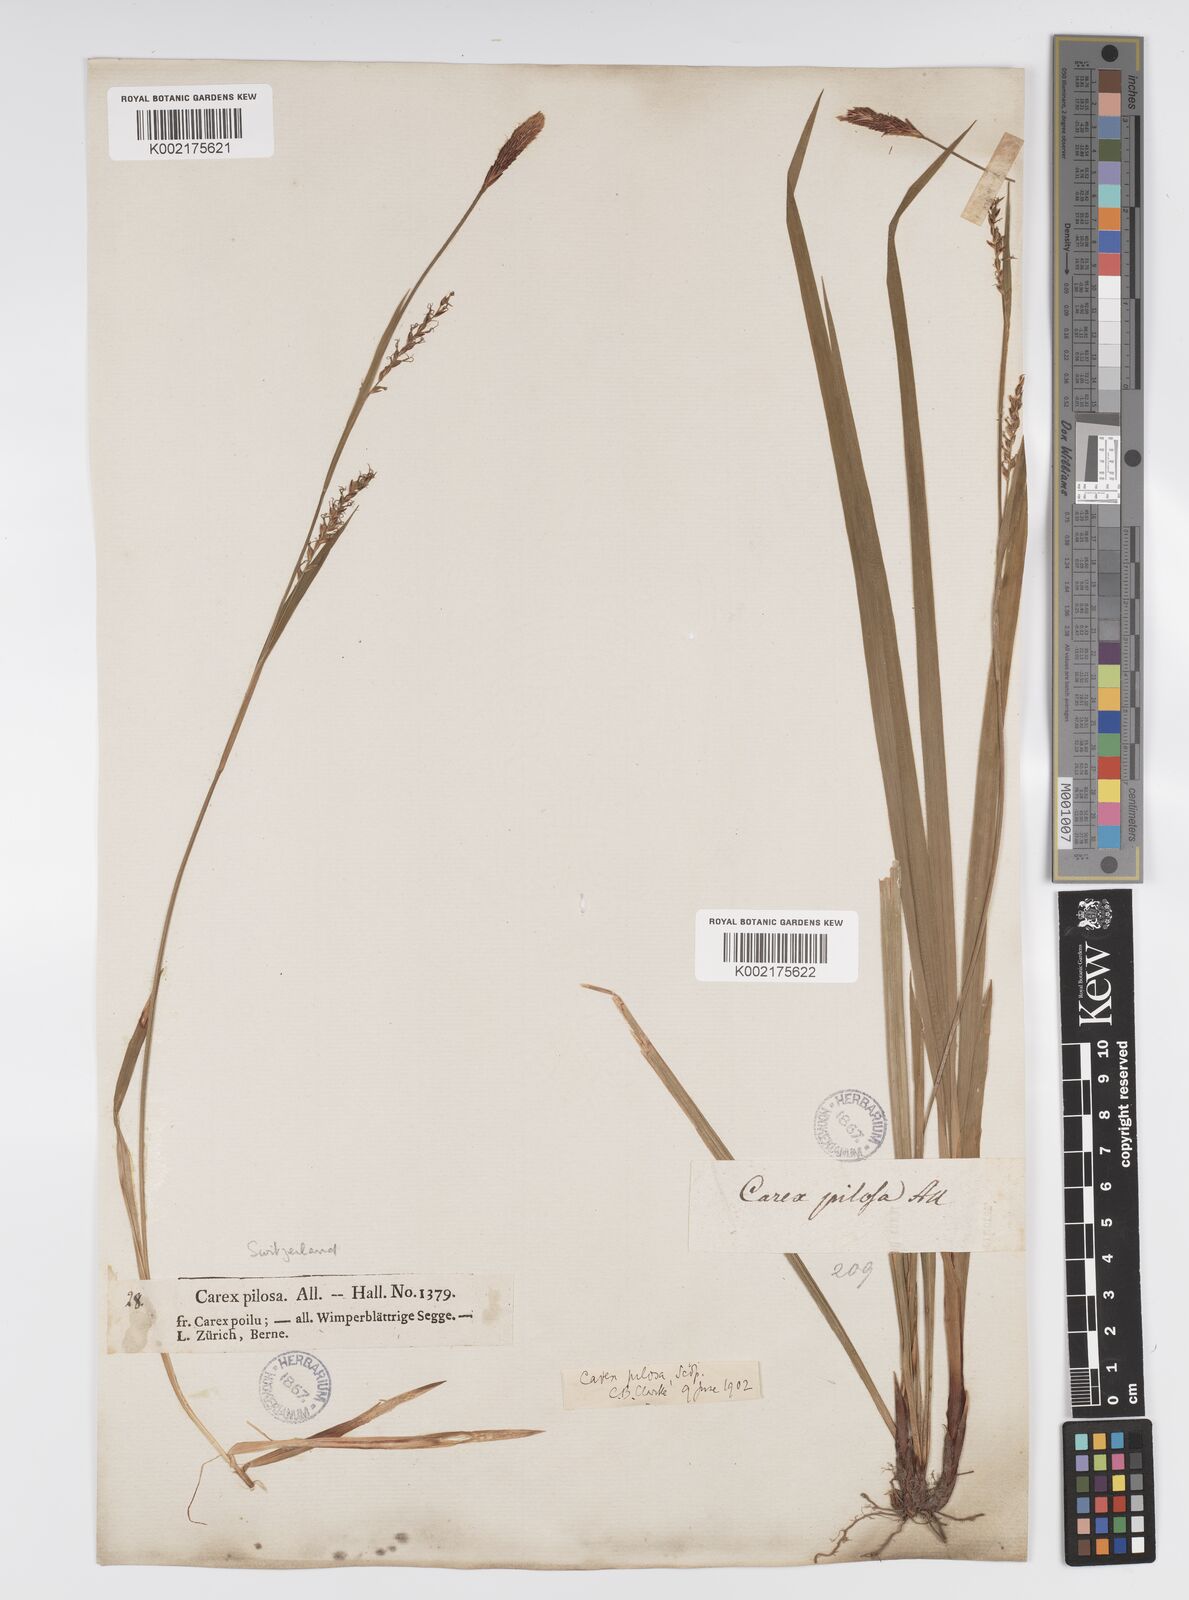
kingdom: Plantae
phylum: Tracheophyta
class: Liliopsida
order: Poales
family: Cyperaceae
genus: Carex
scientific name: Carex pilosa
